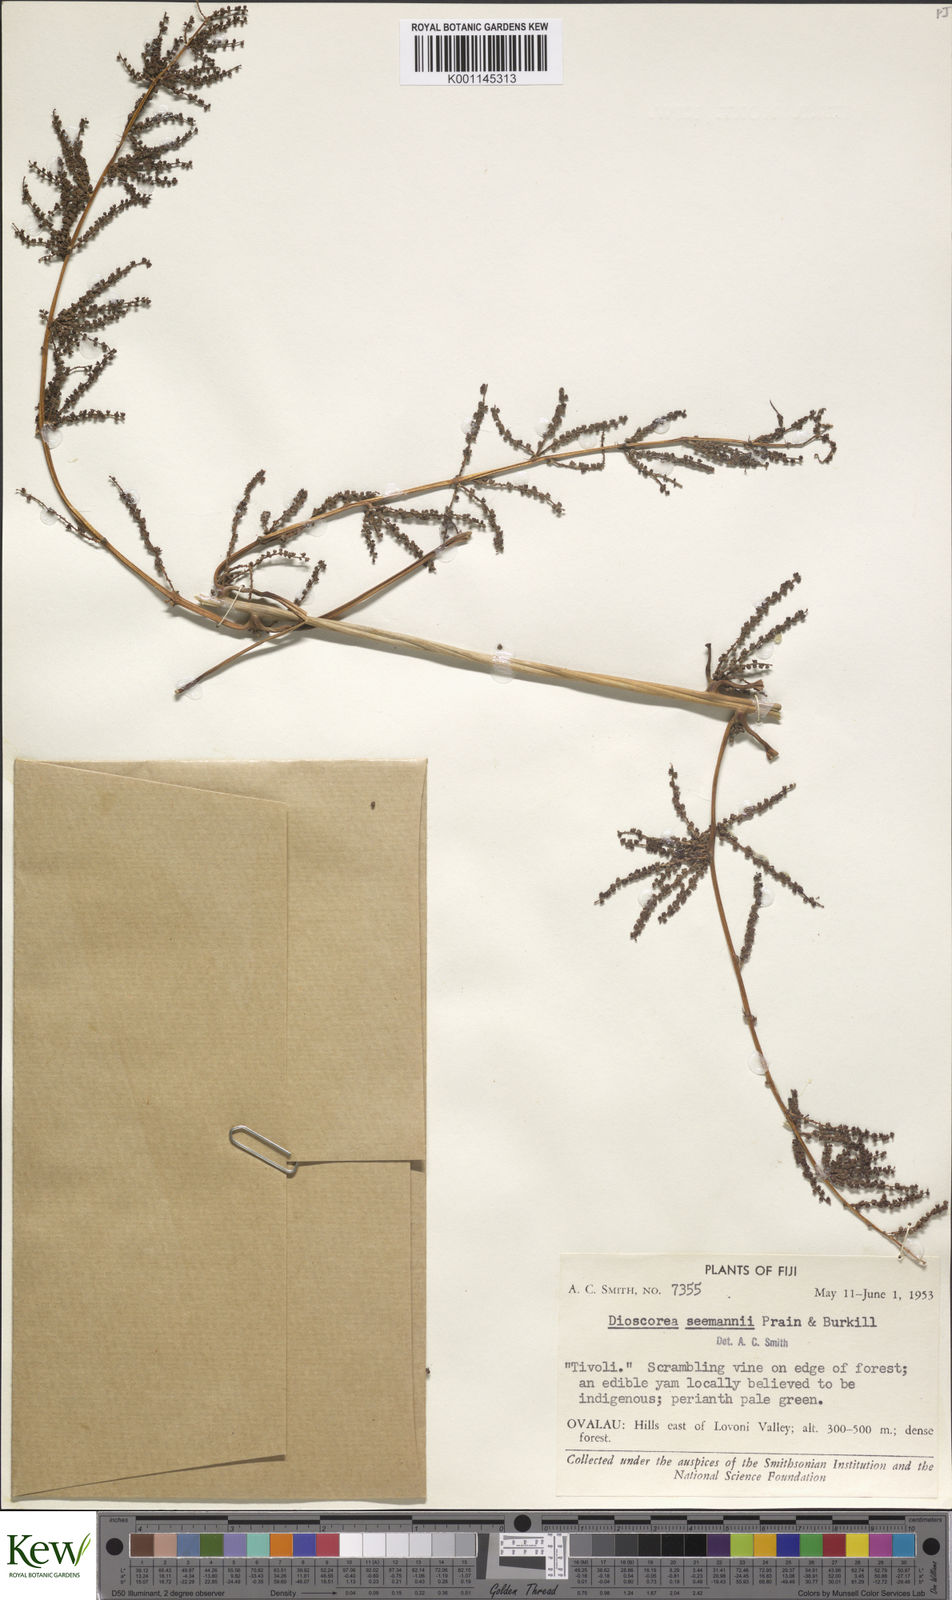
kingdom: Plantae
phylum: Tracheophyta
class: Liliopsida
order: Dioscoreales
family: Dioscoreaceae
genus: Dioscorea
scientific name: Dioscorea nummularia
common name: Pacific yam
